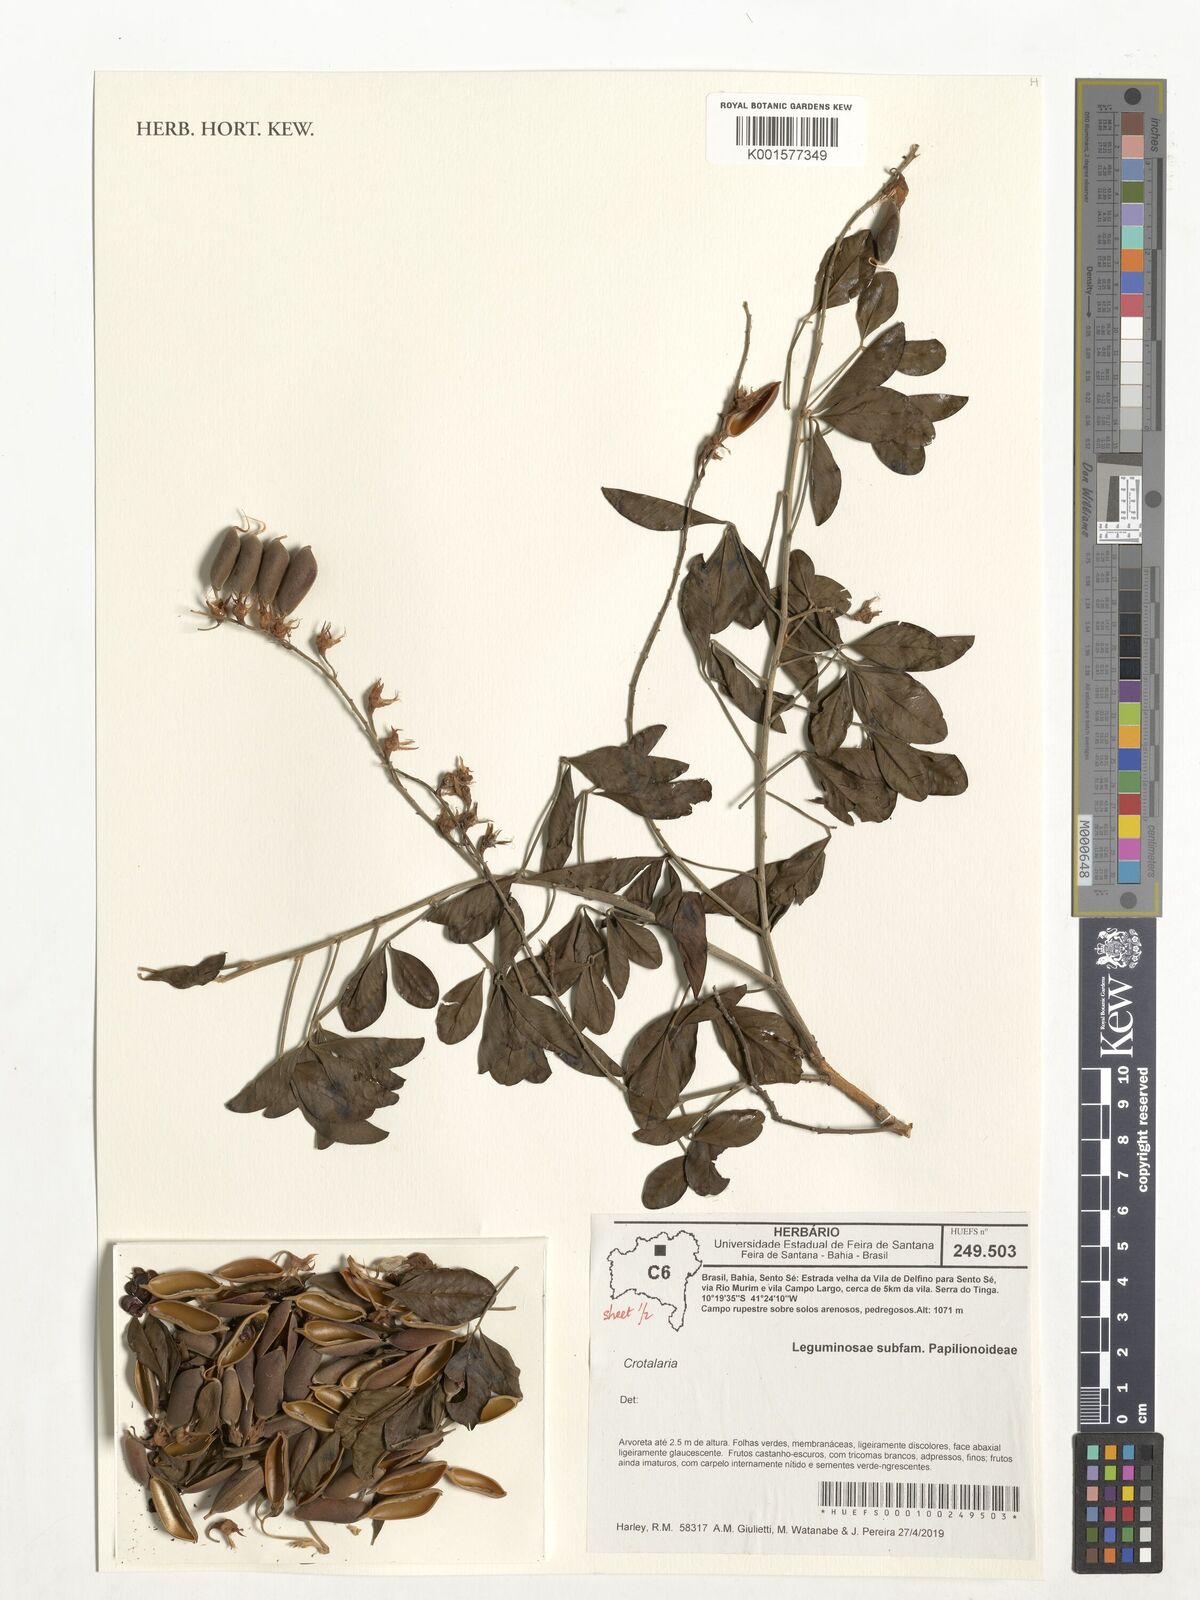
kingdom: Plantae
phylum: Tracheophyta
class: Magnoliopsida
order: Fabales
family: Fabaceae
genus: Crotalaria
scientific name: Crotalaria
